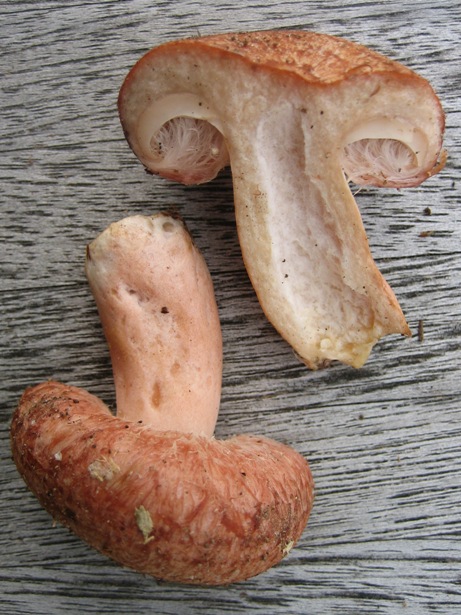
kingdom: Fungi
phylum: Basidiomycota
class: Agaricomycetes
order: Russulales
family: Russulaceae
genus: Lactarius
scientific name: Lactarius torminosus
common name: skægget mælkehat
